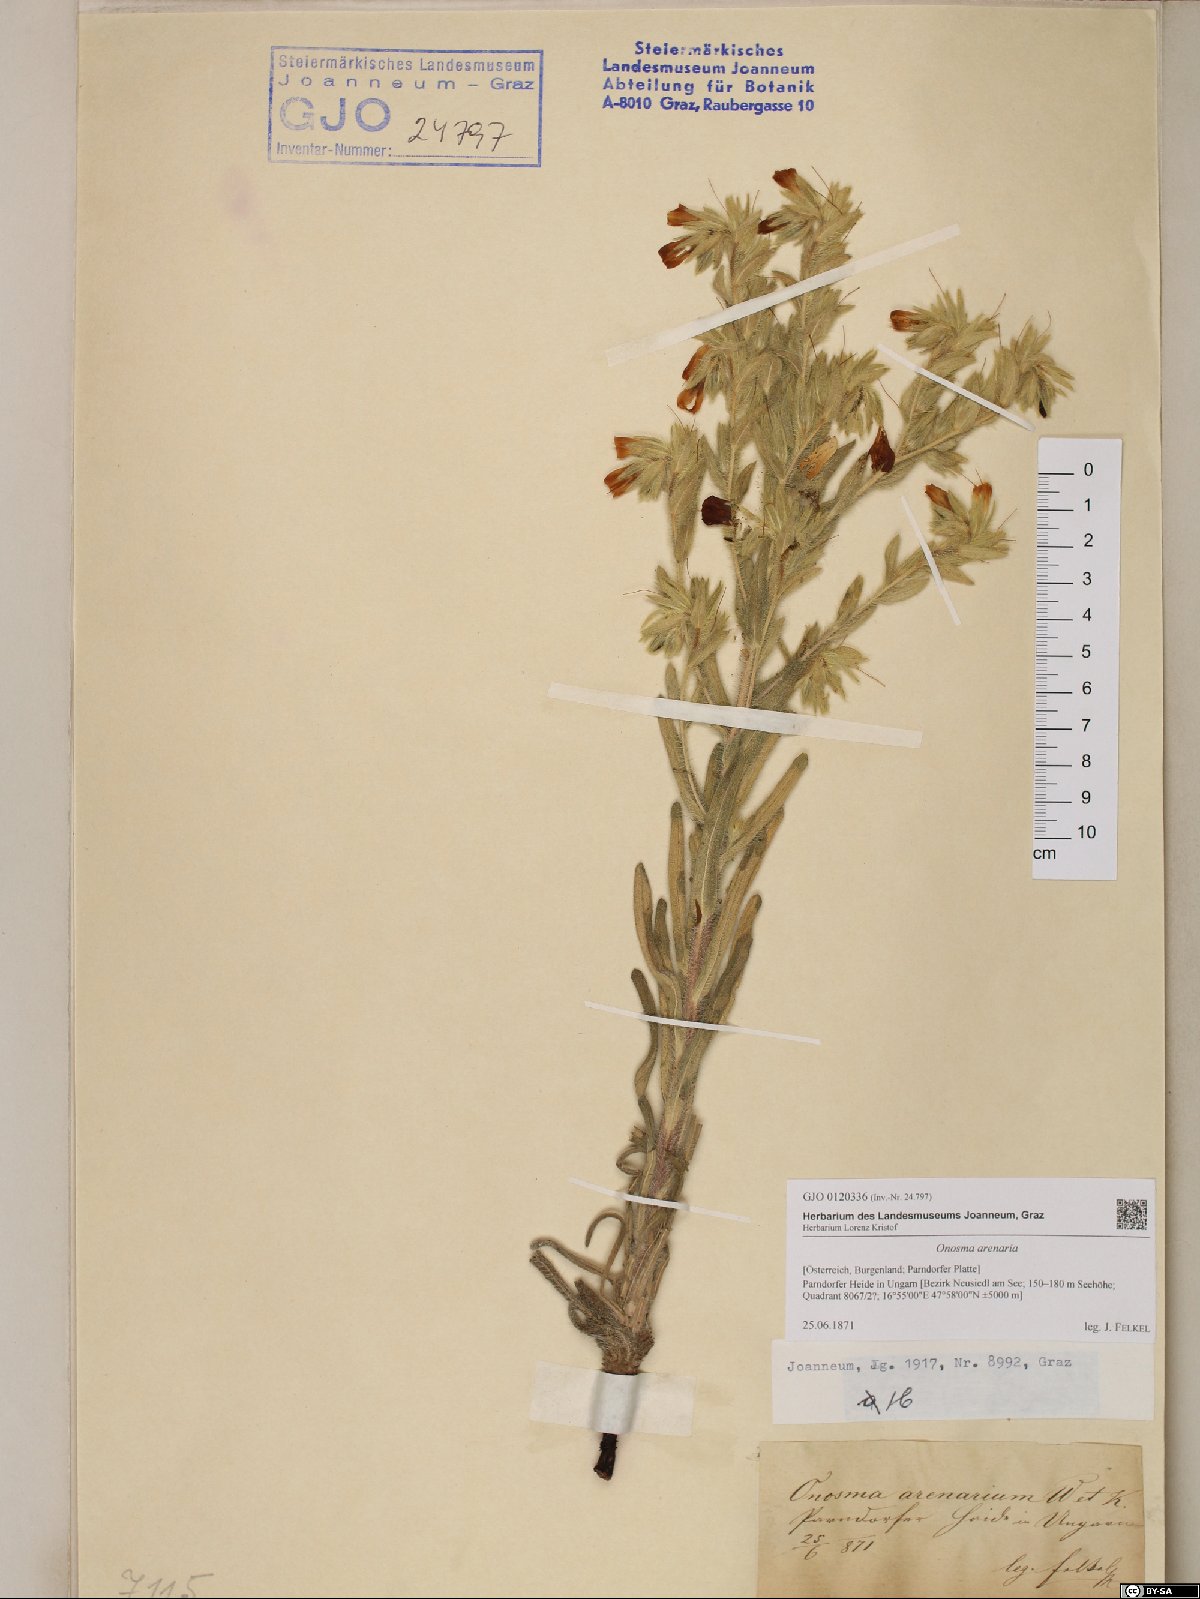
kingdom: Plantae
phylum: Tracheophyta
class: Magnoliopsida
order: Boraginales
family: Boraginaceae
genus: Onosma
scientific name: Onosma arenaria
